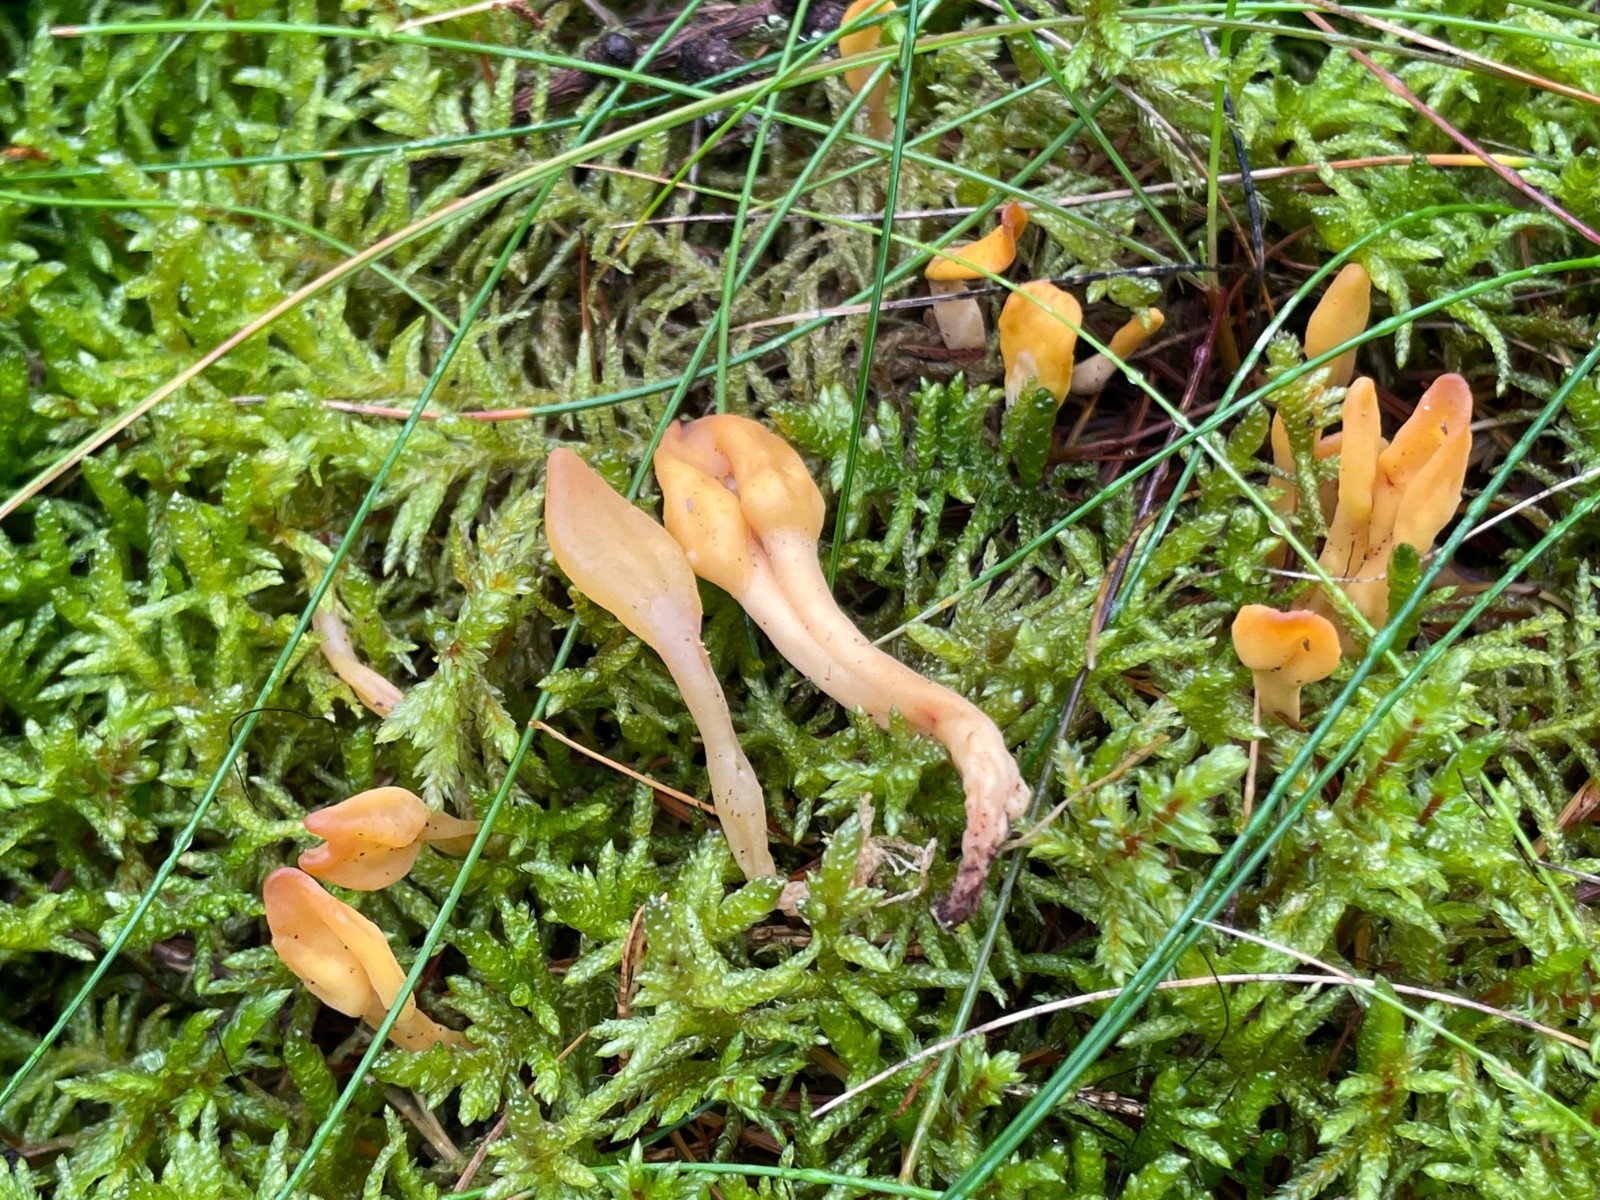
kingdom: Fungi
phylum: Ascomycota
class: Leotiomycetes
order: Rhytismatales
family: Cudoniaceae
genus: Spathularia
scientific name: Spathularia flavida
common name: gul spatelsvamp
